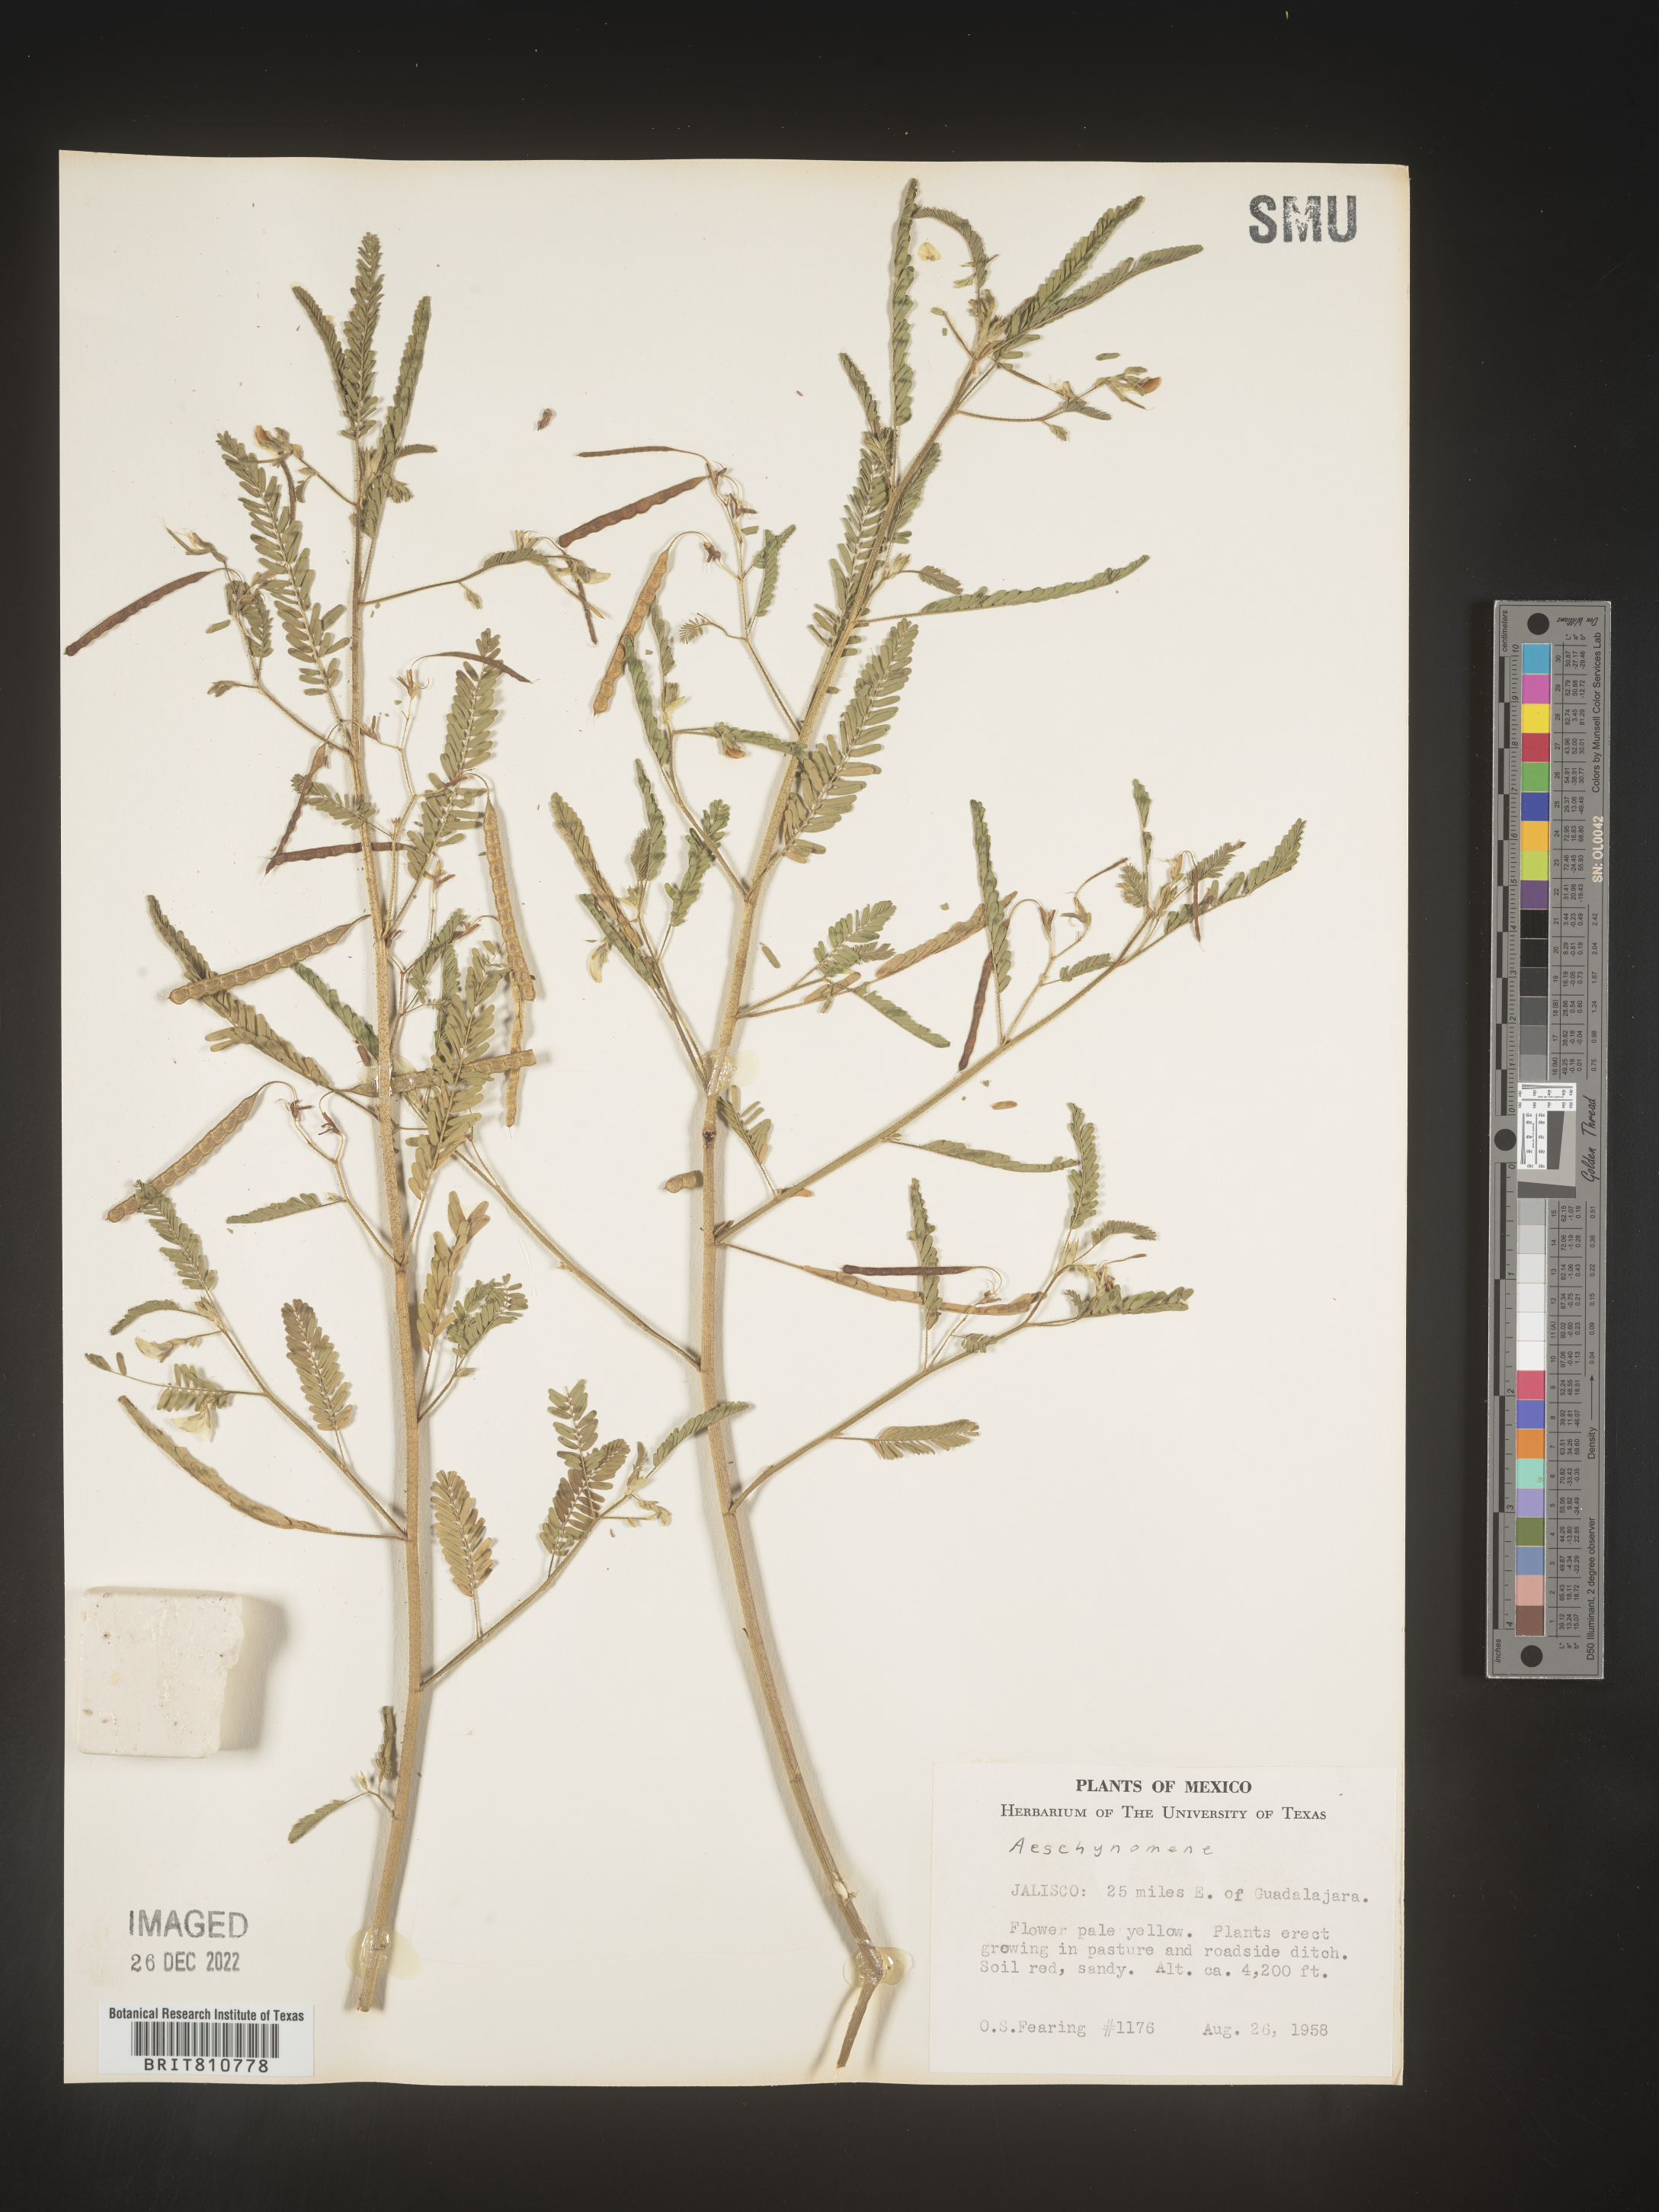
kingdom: Plantae
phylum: Tracheophyta
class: Magnoliopsida
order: Fabales
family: Fabaceae
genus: Aeschynomene
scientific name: Aeschynomene
